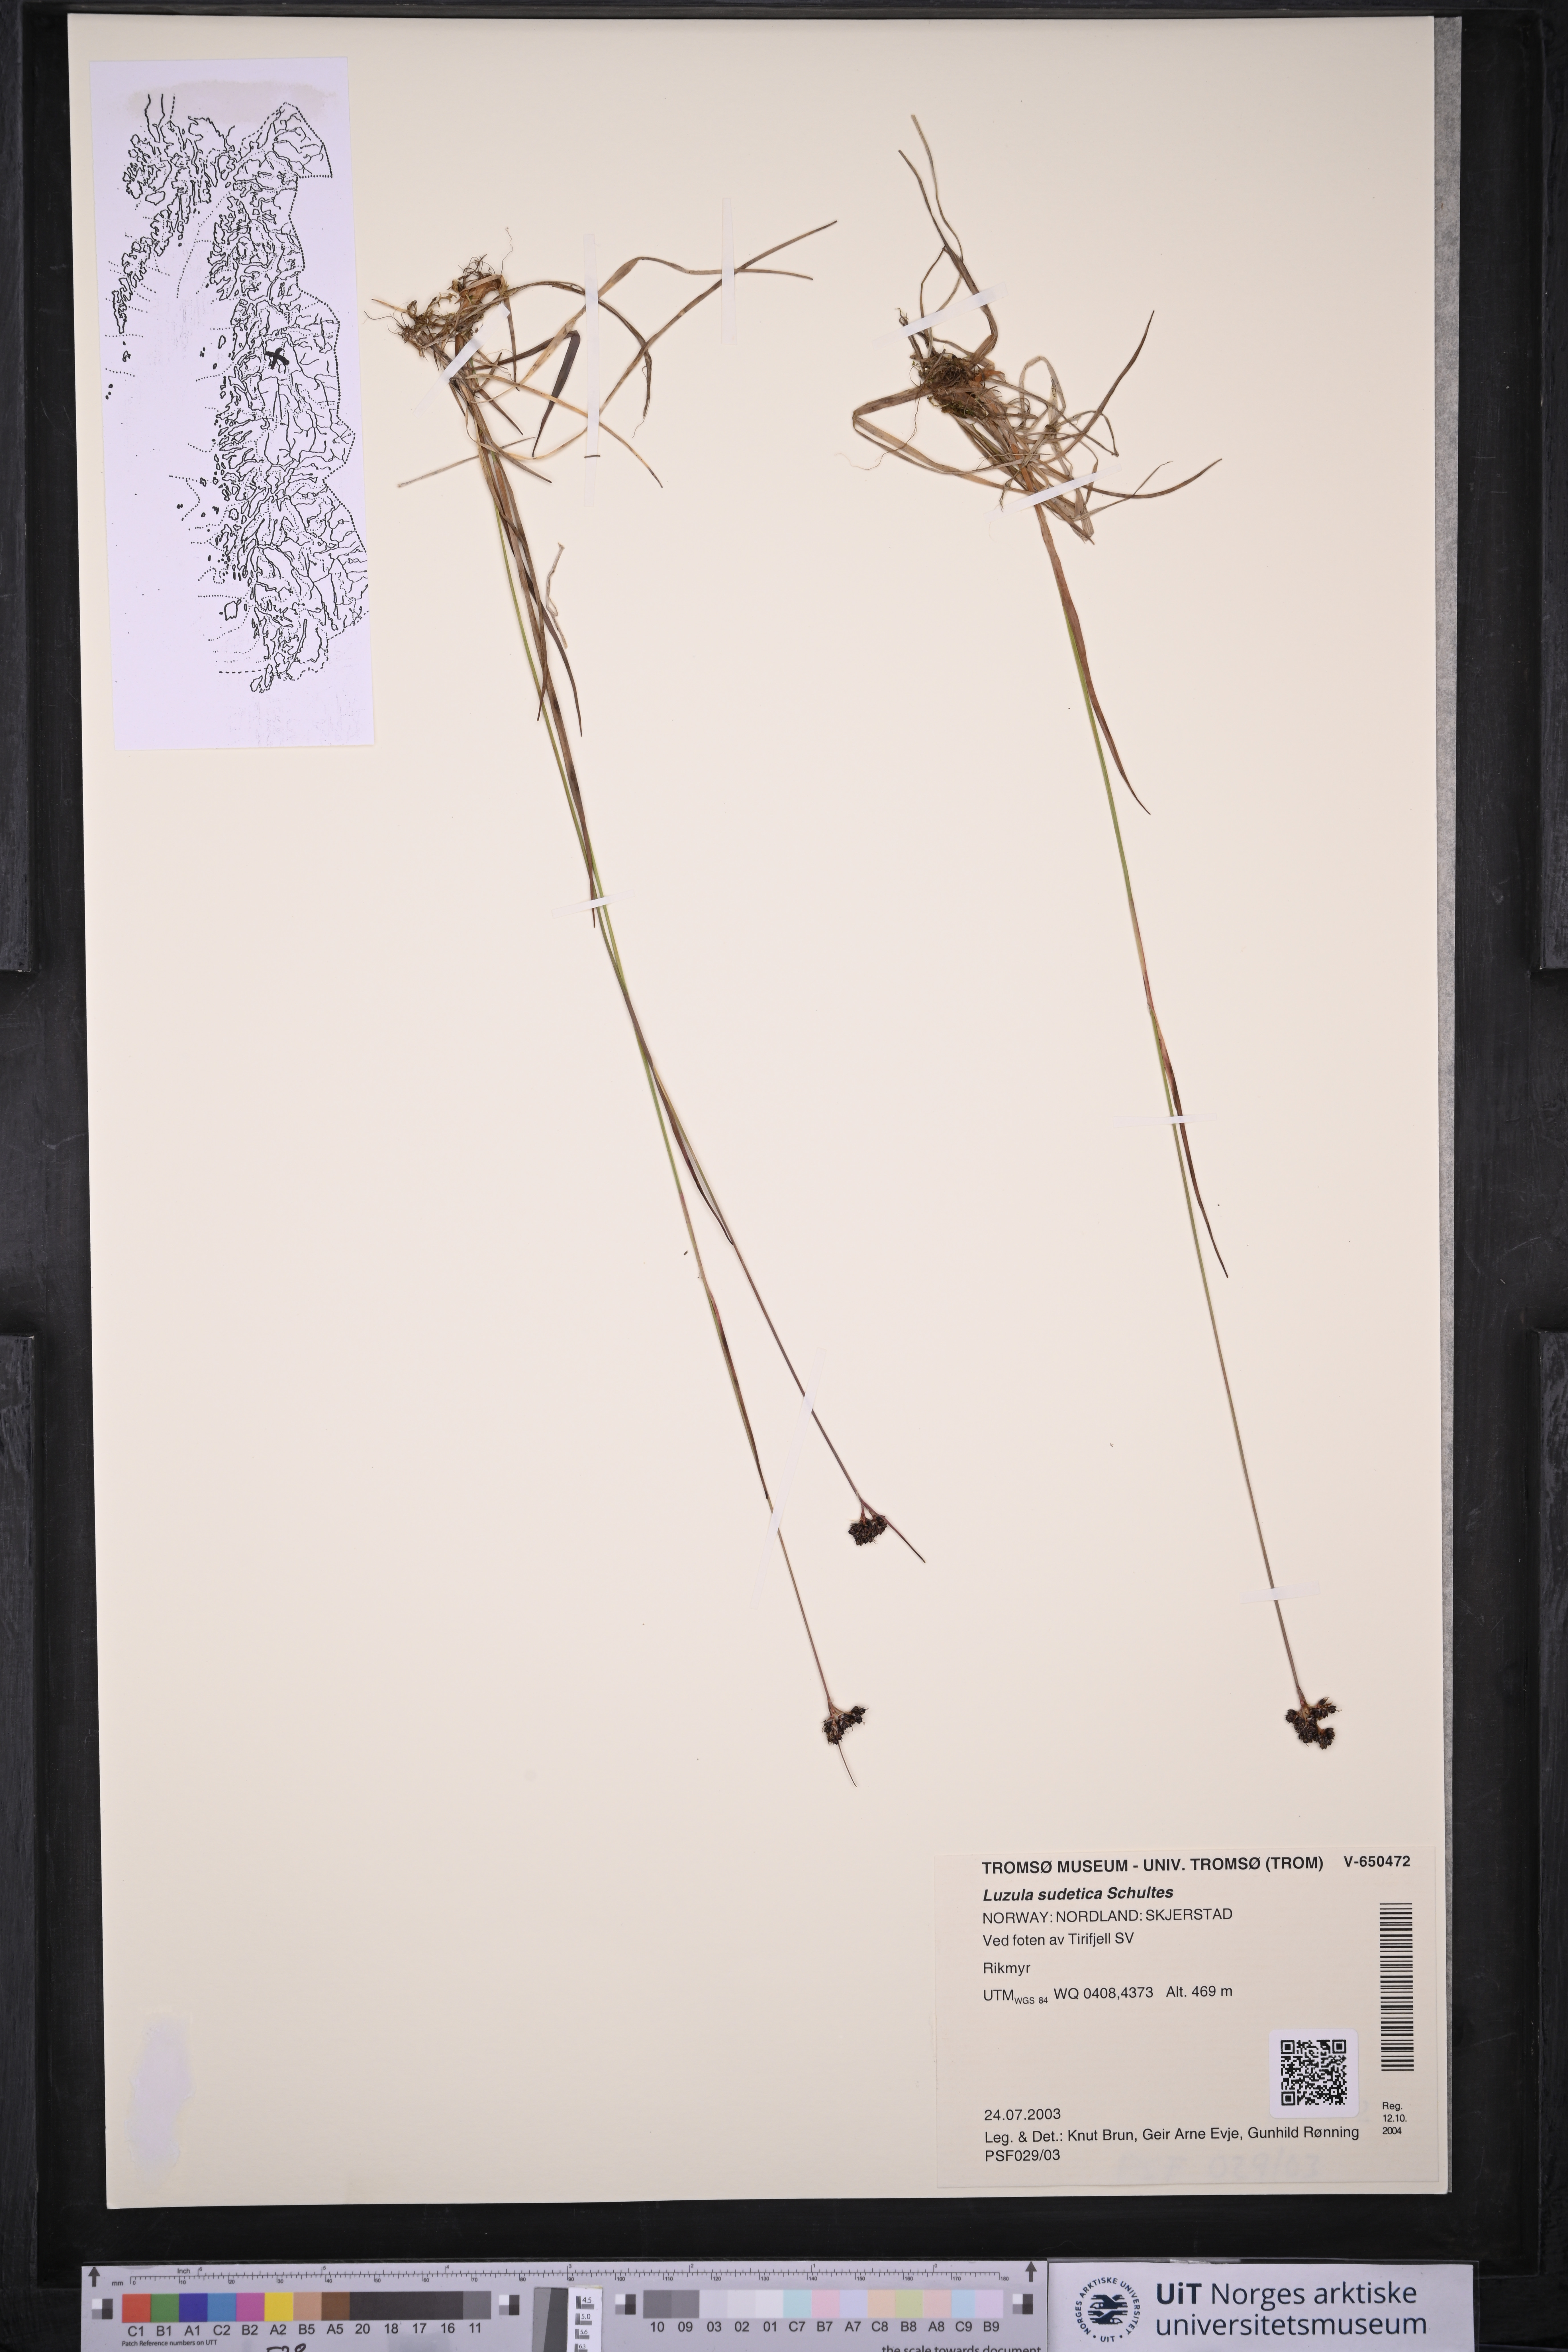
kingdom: Plantae
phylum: Tracheophyta
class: Liliopsida
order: Poales
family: Juncaceae
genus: Luzula
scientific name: Luzula sudetica
